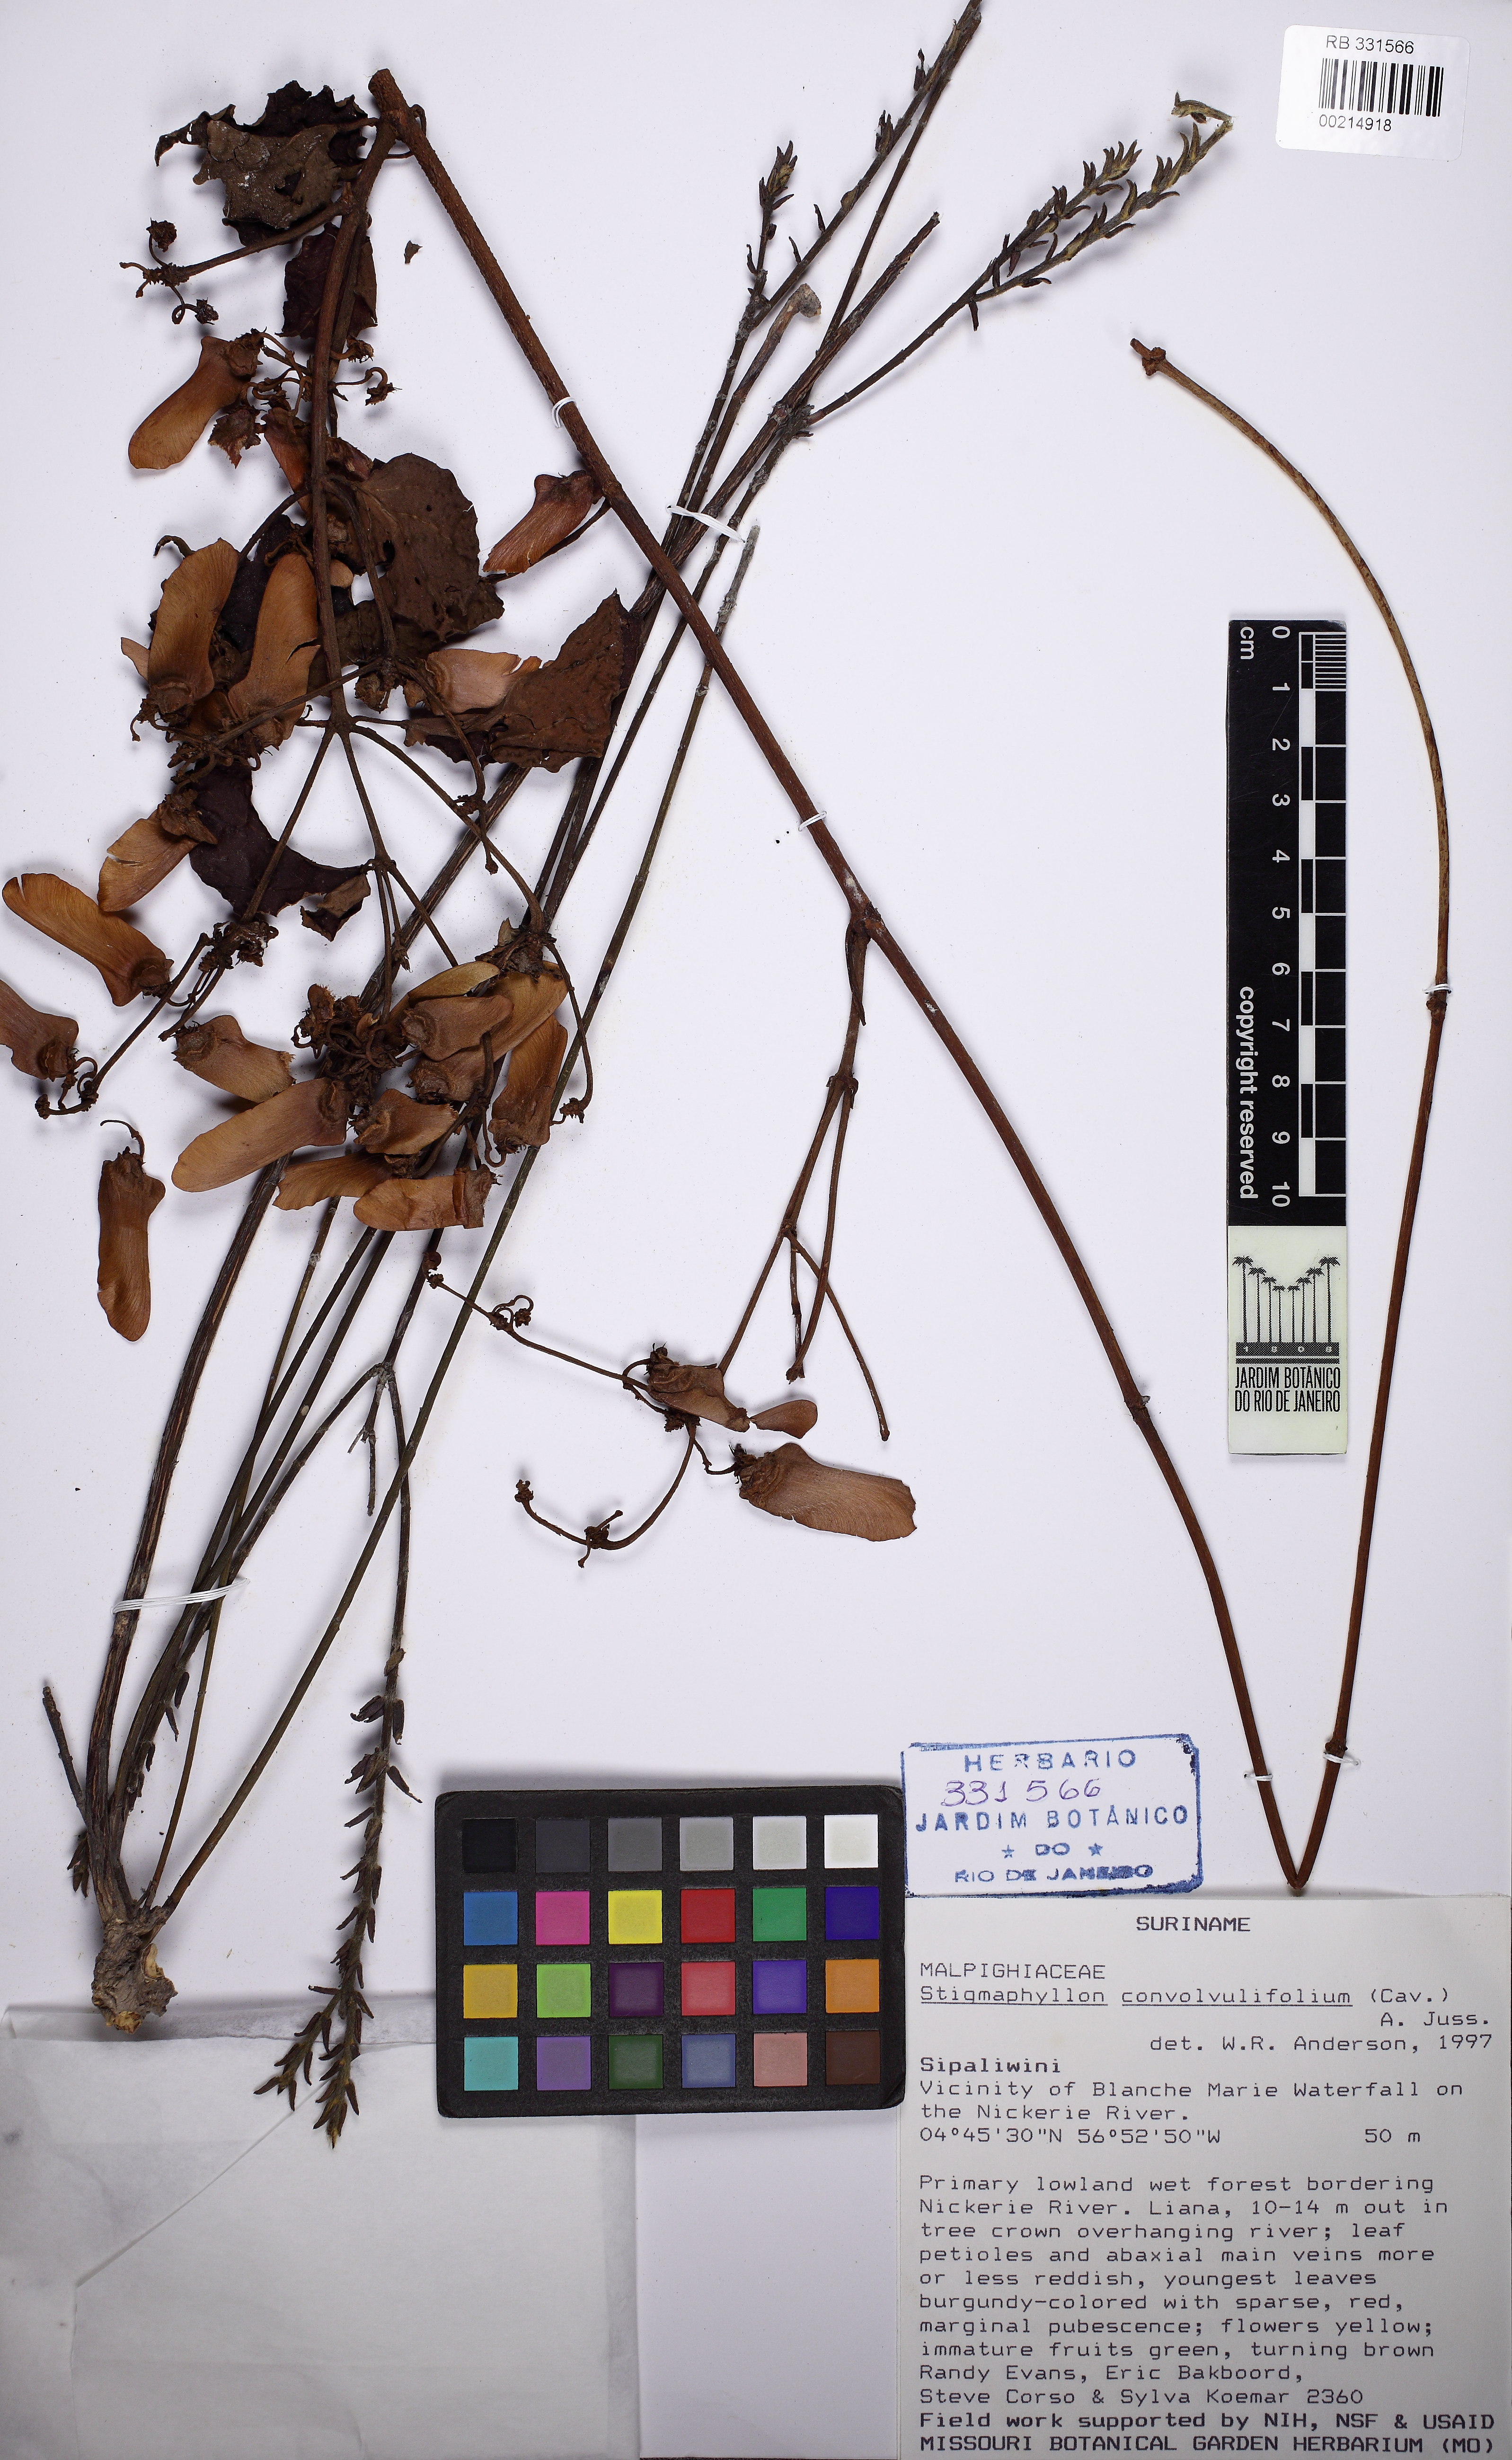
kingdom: Plantae
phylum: Tracheophyta
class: Magnoliopsida
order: Malpighiales
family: Malpighiaceae
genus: Stigmaphyllon
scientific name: Stigmaphyllon convolvulifolium
